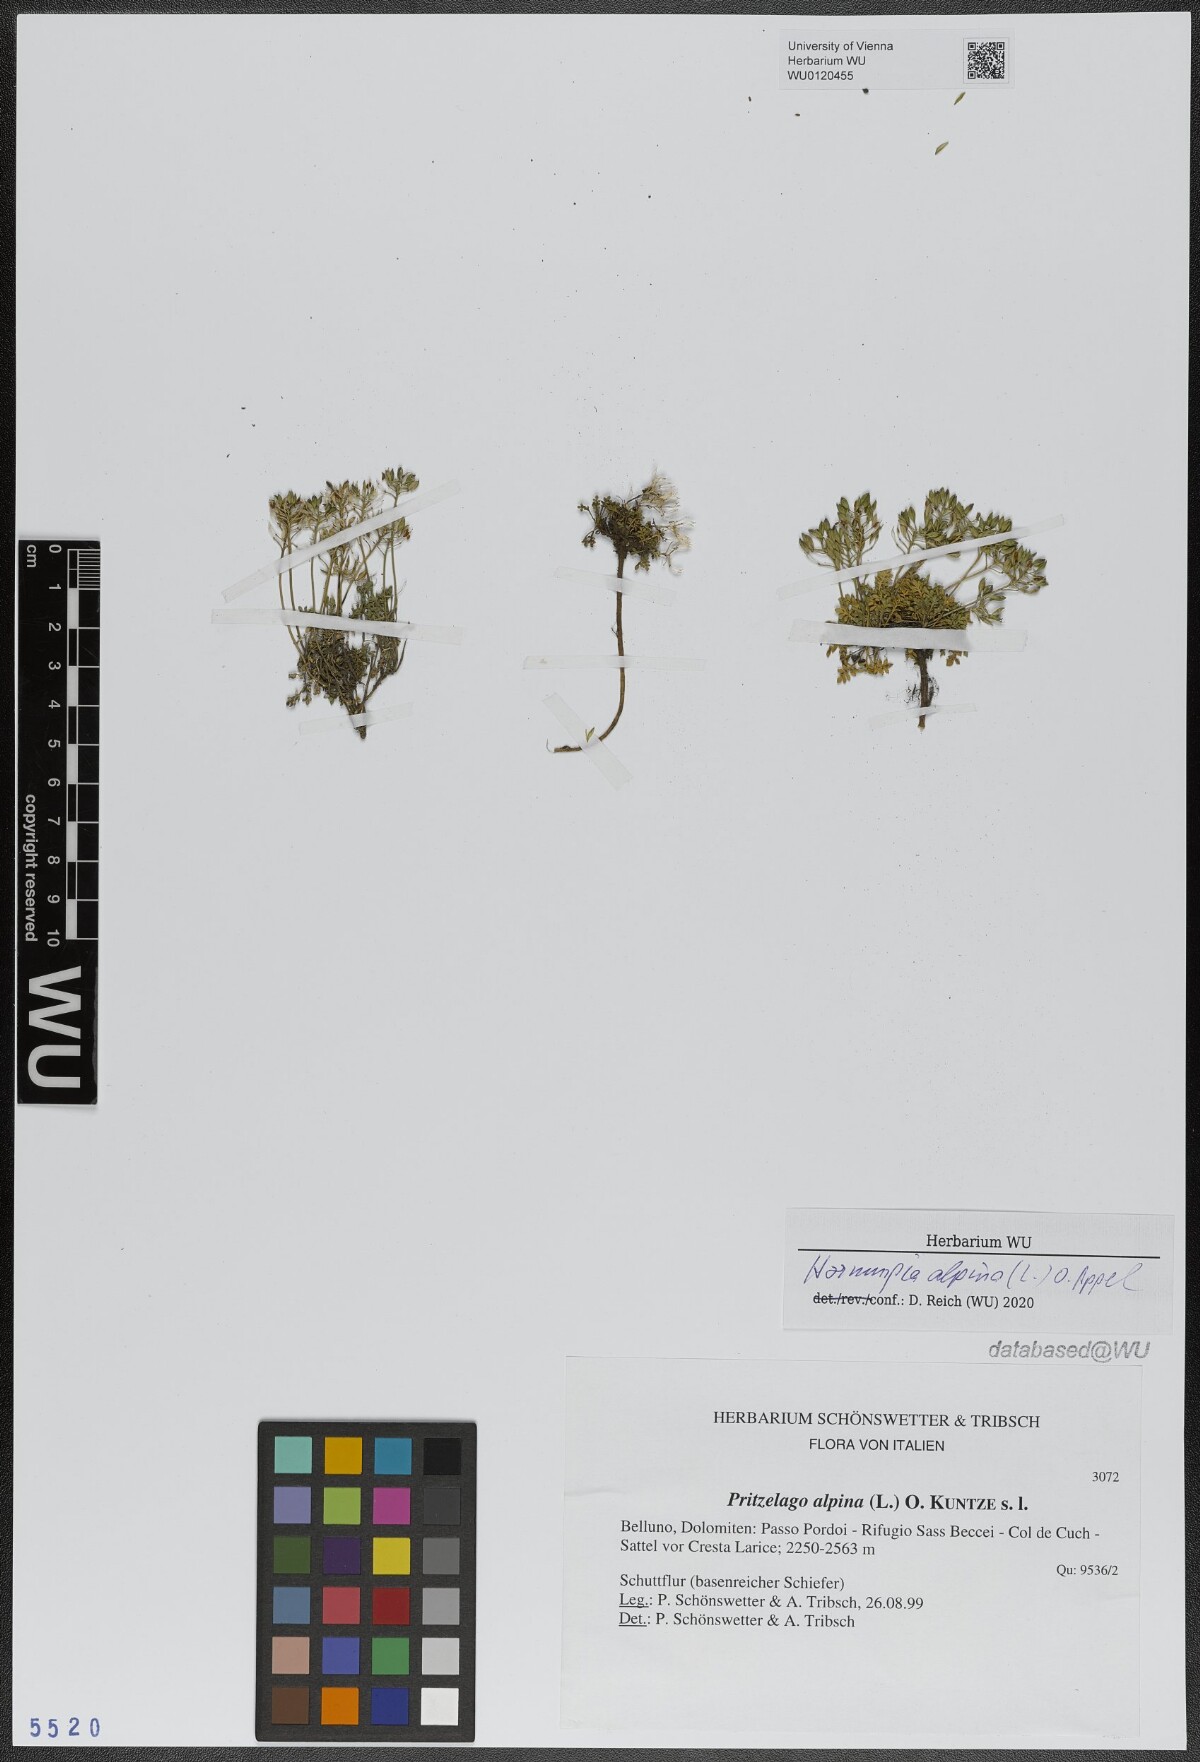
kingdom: Plantae
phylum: Tracheophyta
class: Magnoliopsida
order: Brassicales
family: Brassicaceae
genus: Hornungia
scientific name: Hornungia alpina
